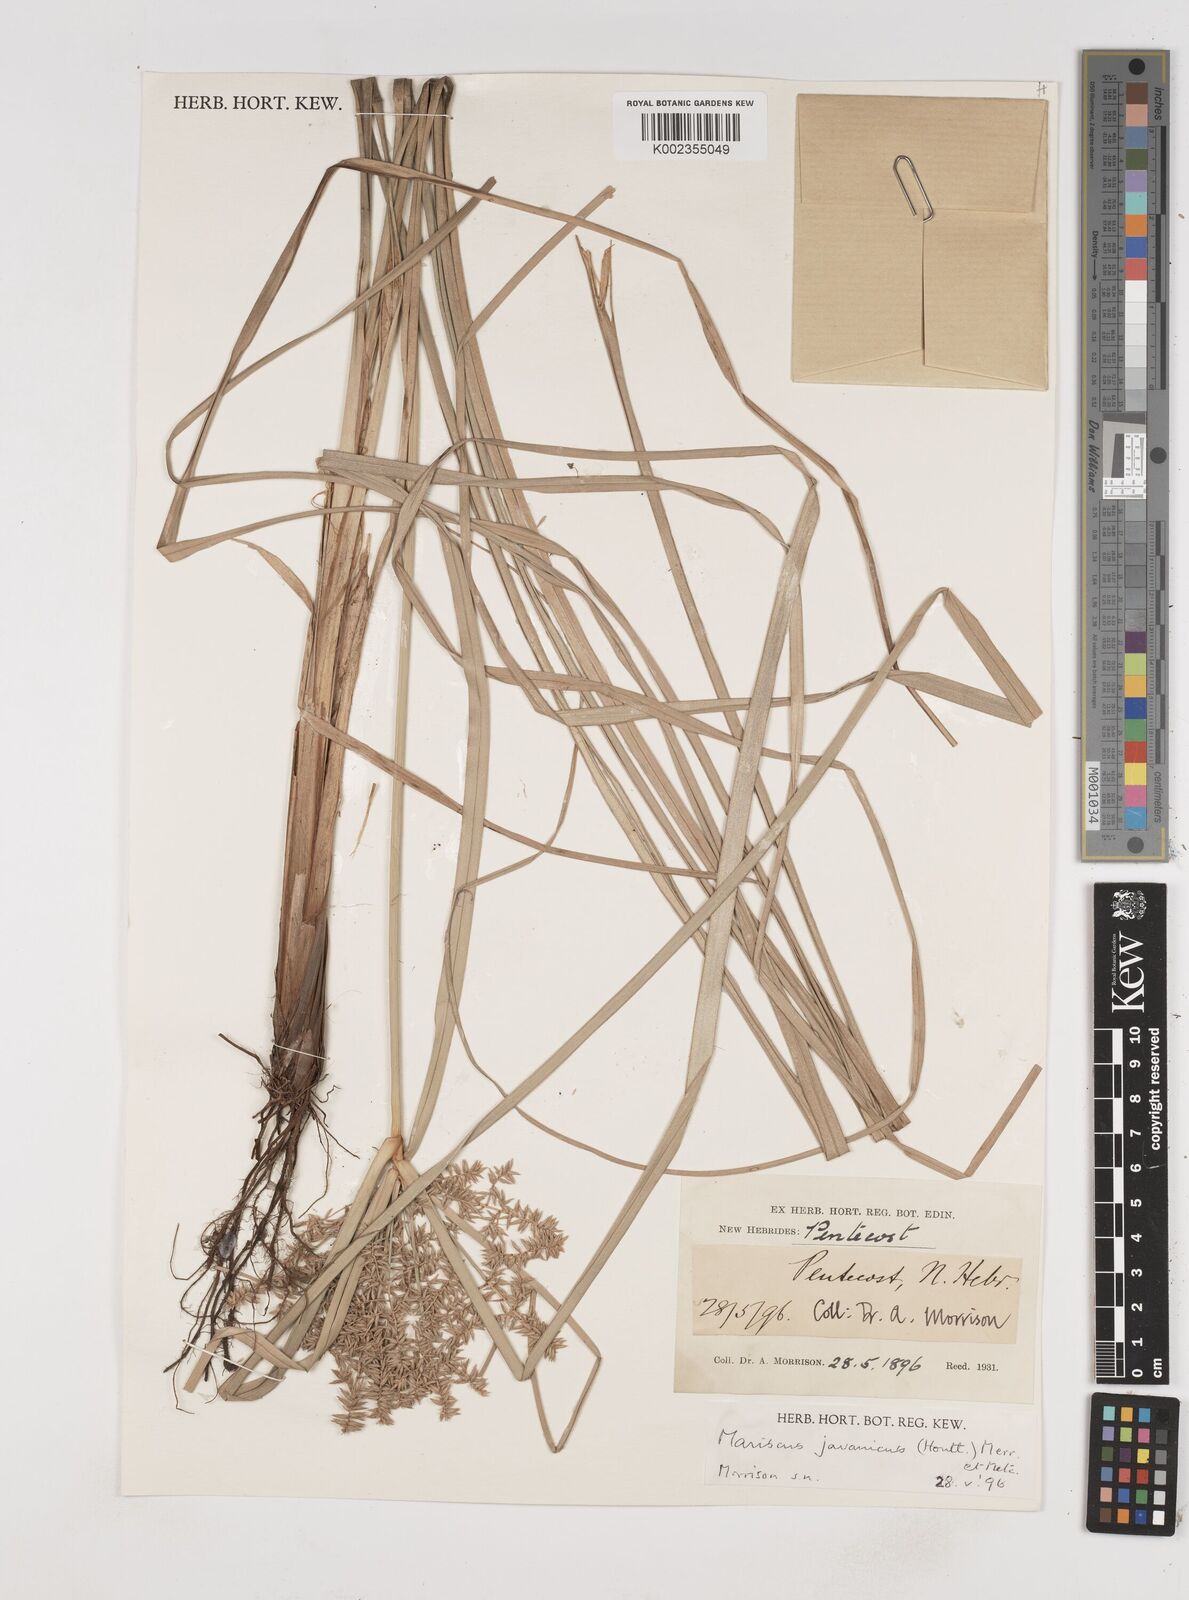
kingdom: Plantae
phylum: Tracheophyta
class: Liliopsida
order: Poales
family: Cyperaceae
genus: Cyperus
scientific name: Cyperus javanicus
